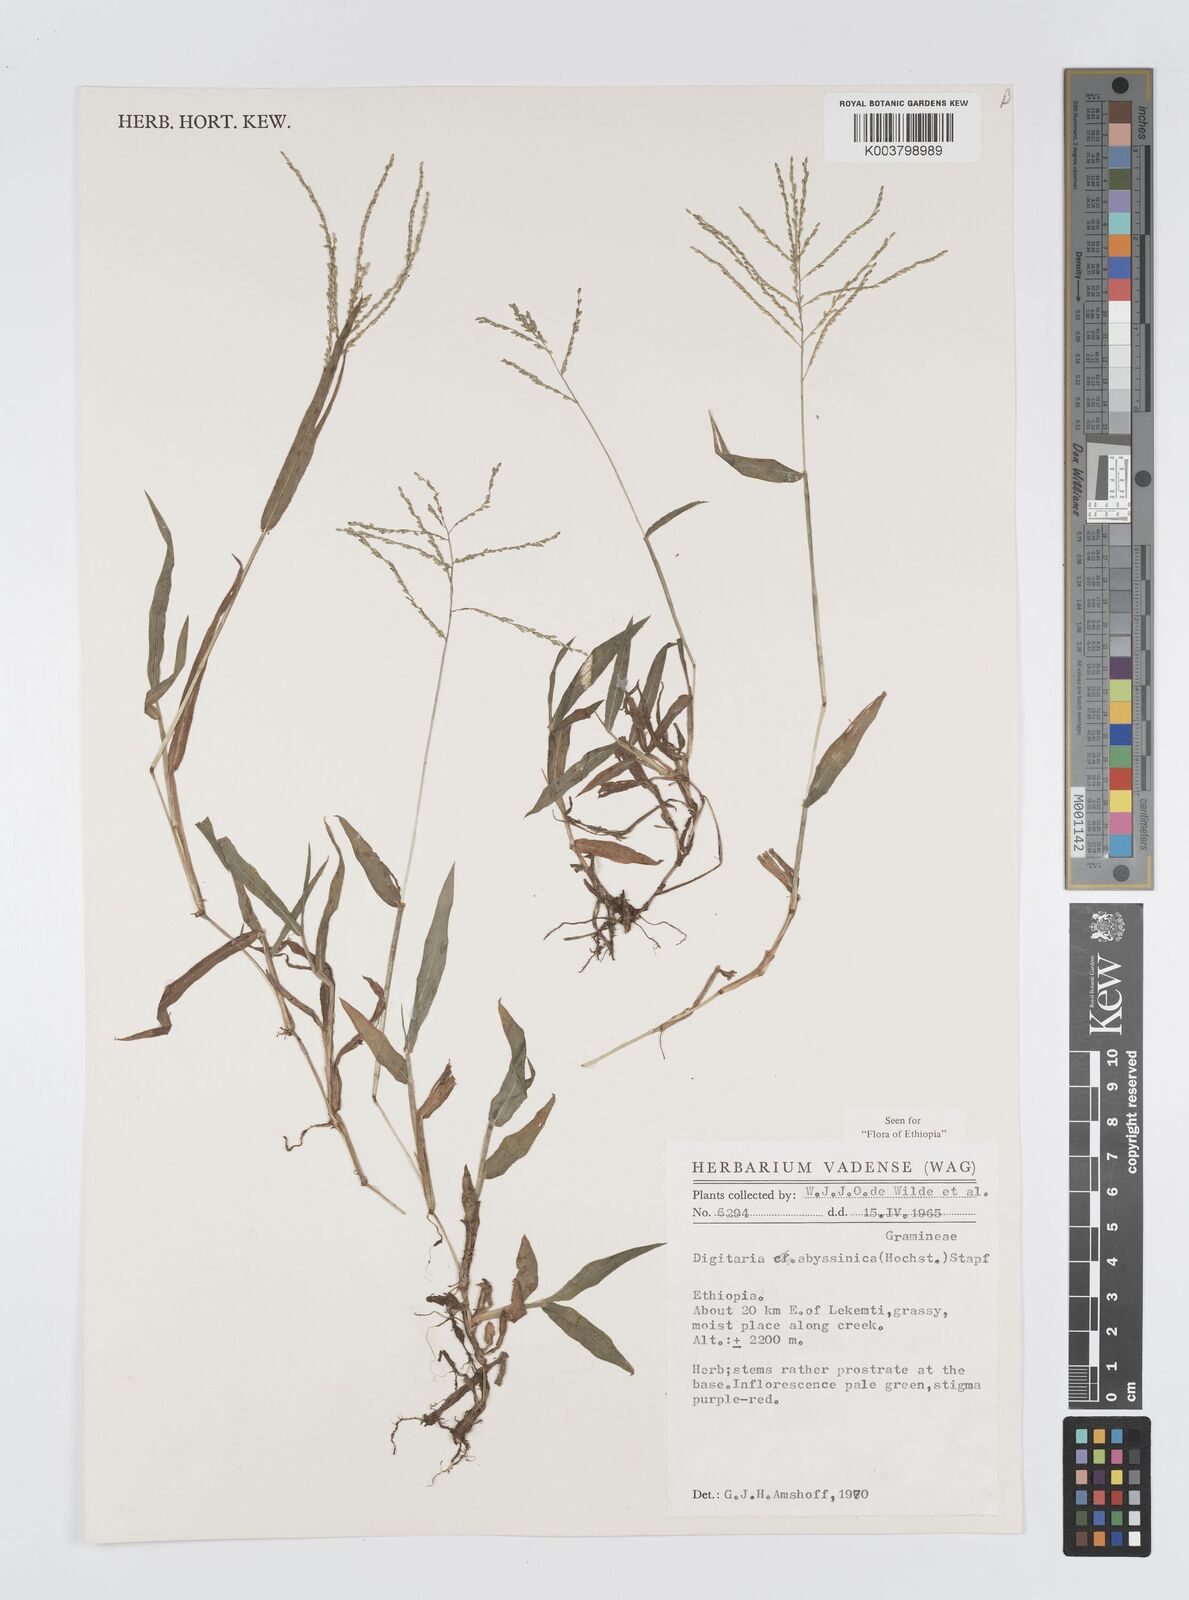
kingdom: Plantae
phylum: Tracheophyta
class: Liliopsida
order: Poales
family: Poaceae
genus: Digitaria
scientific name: Digitaria abyssinica
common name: African couchgrass
